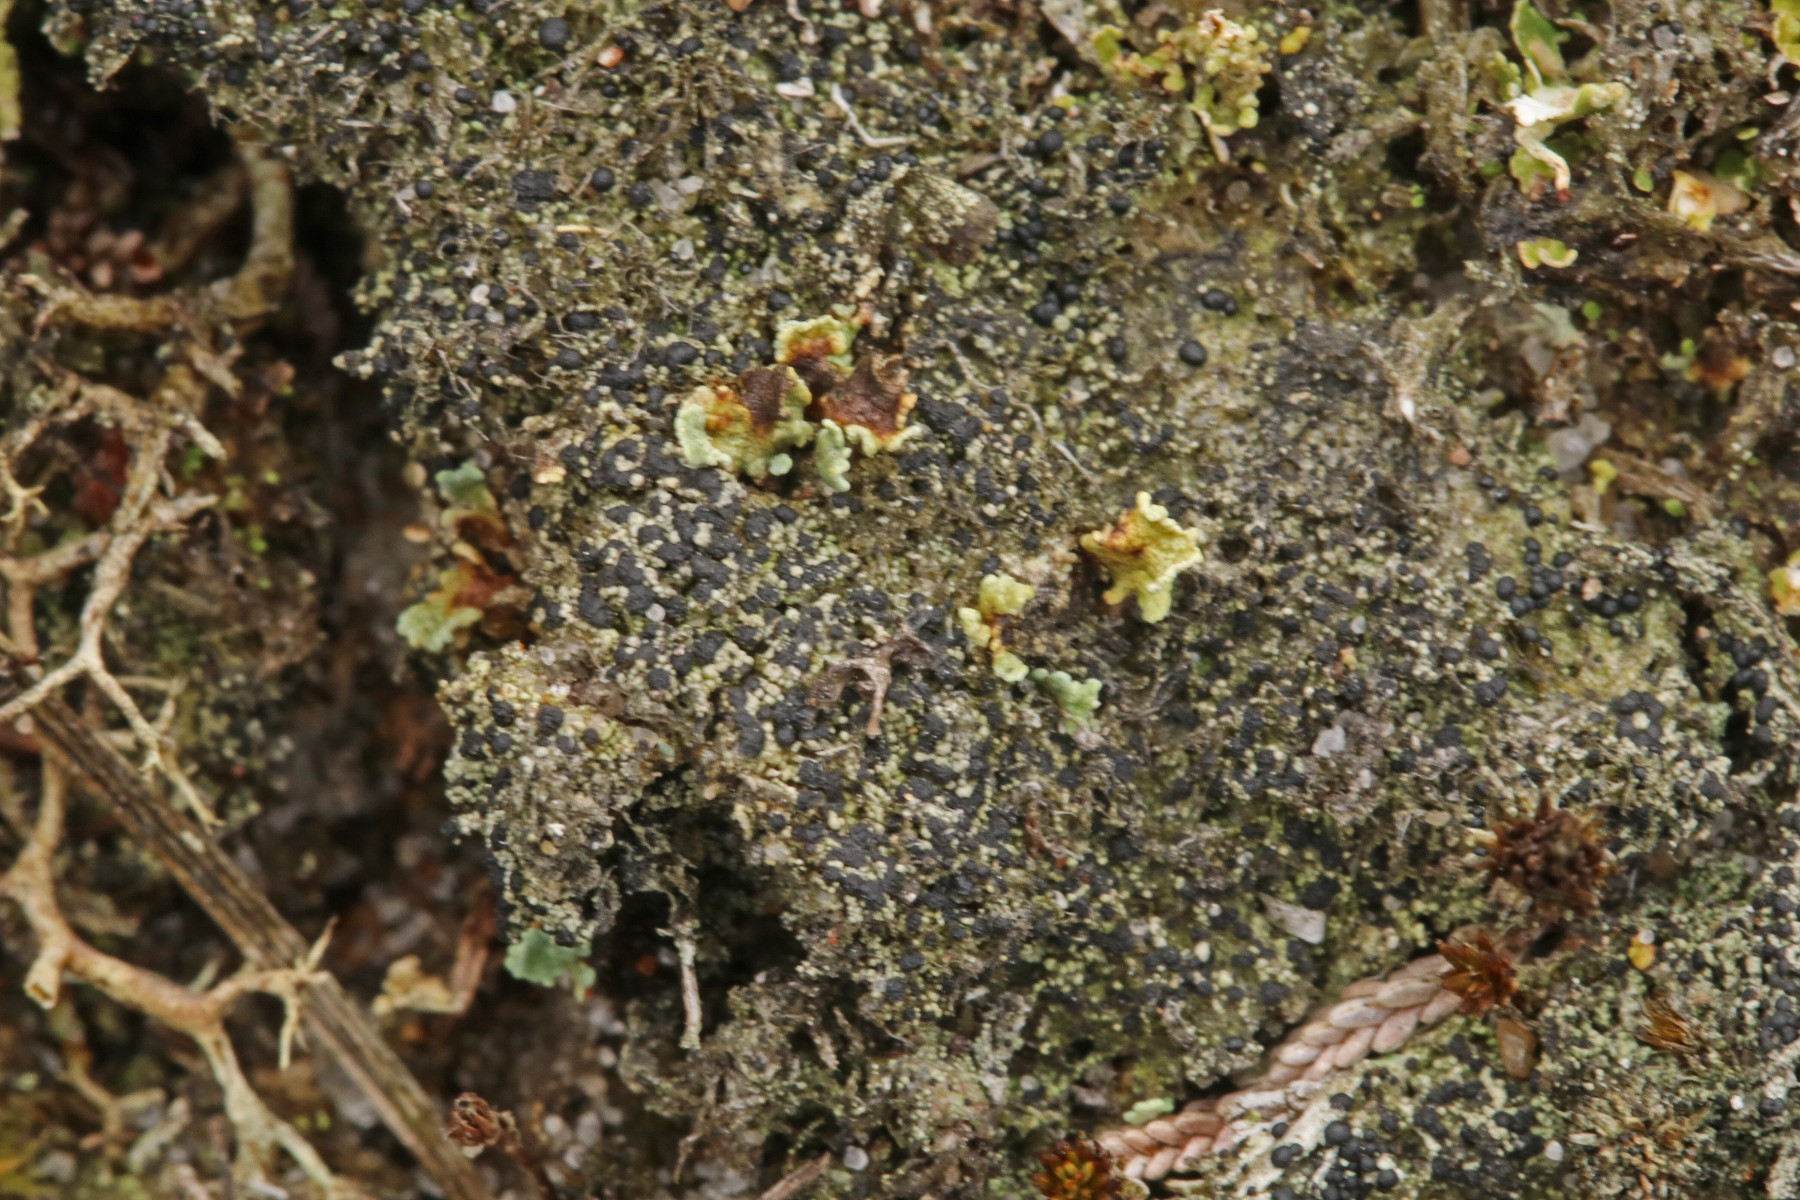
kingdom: Fungi
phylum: Ascomycota
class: Lecanoromycetes
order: Lecanorales
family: Byssolomataceae
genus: Micarea
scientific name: Micarea lignaria
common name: tørve-knaplav
